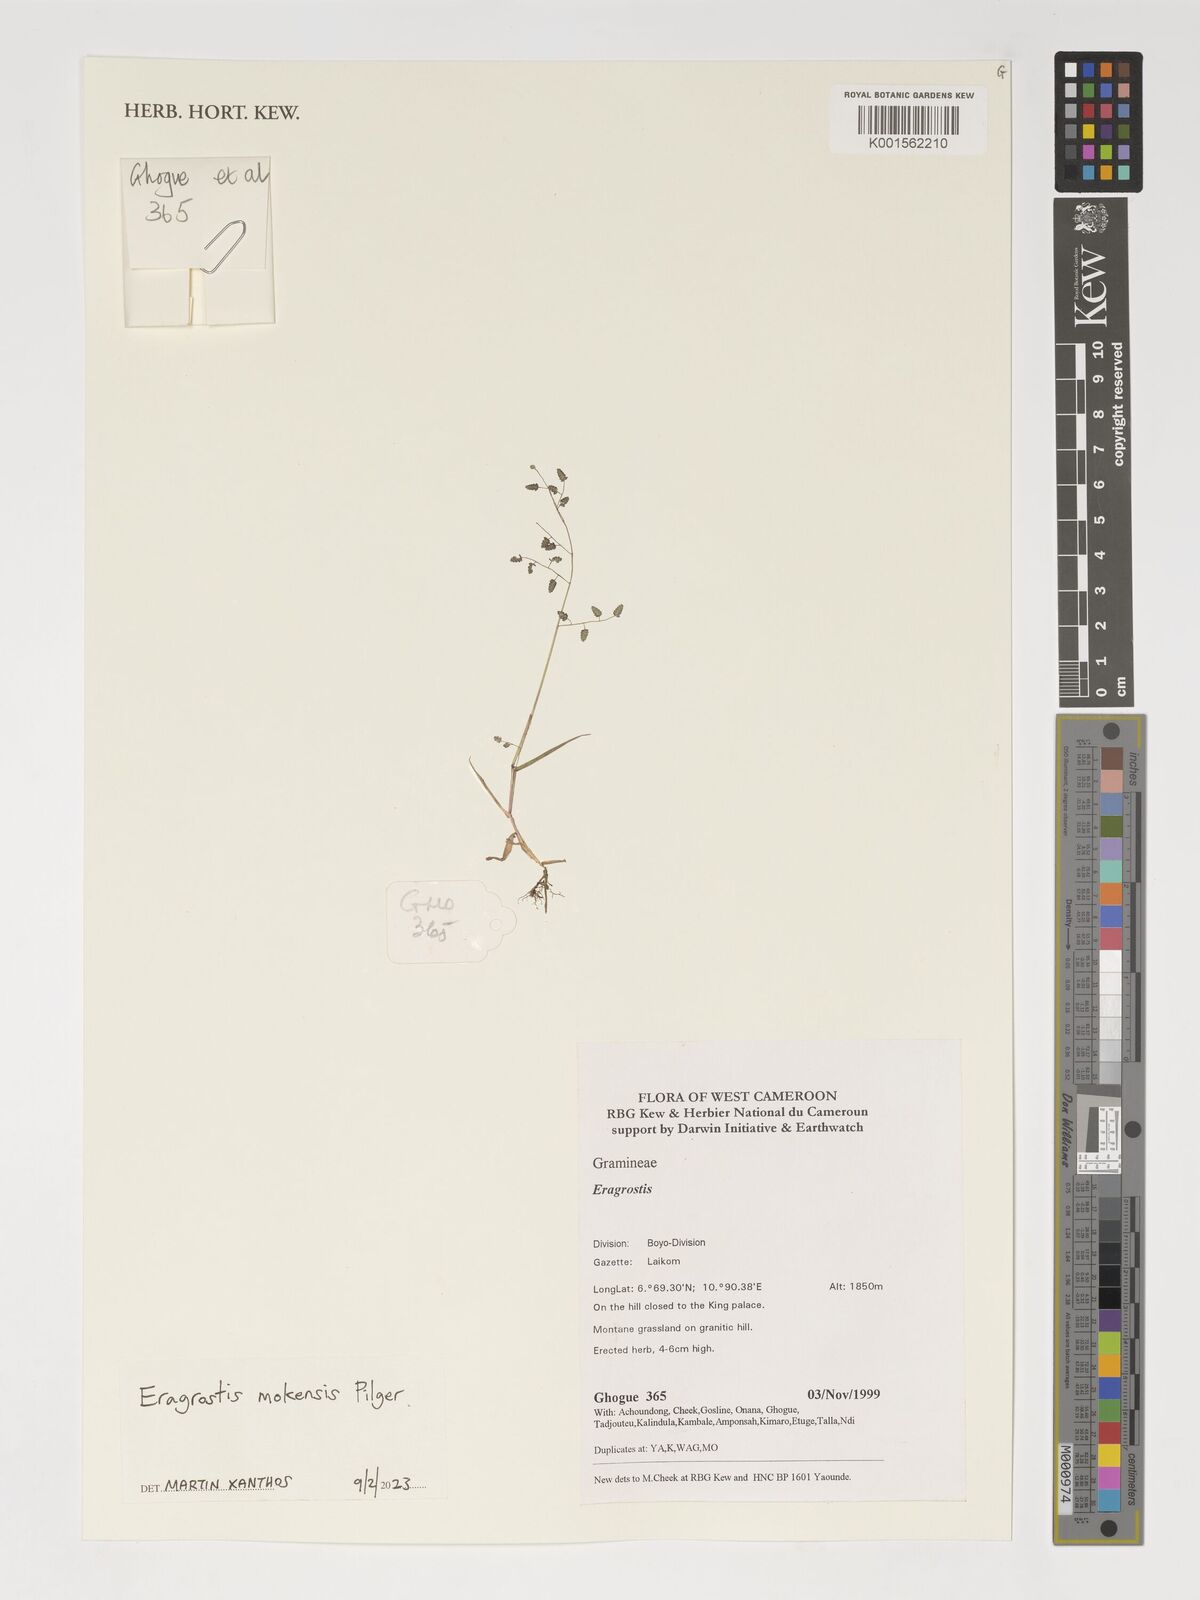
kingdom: Plantae
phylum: Tracheophyta
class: Liliopsida
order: Poales
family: Poaceae
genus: Eragrostis
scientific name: Eragrostis
